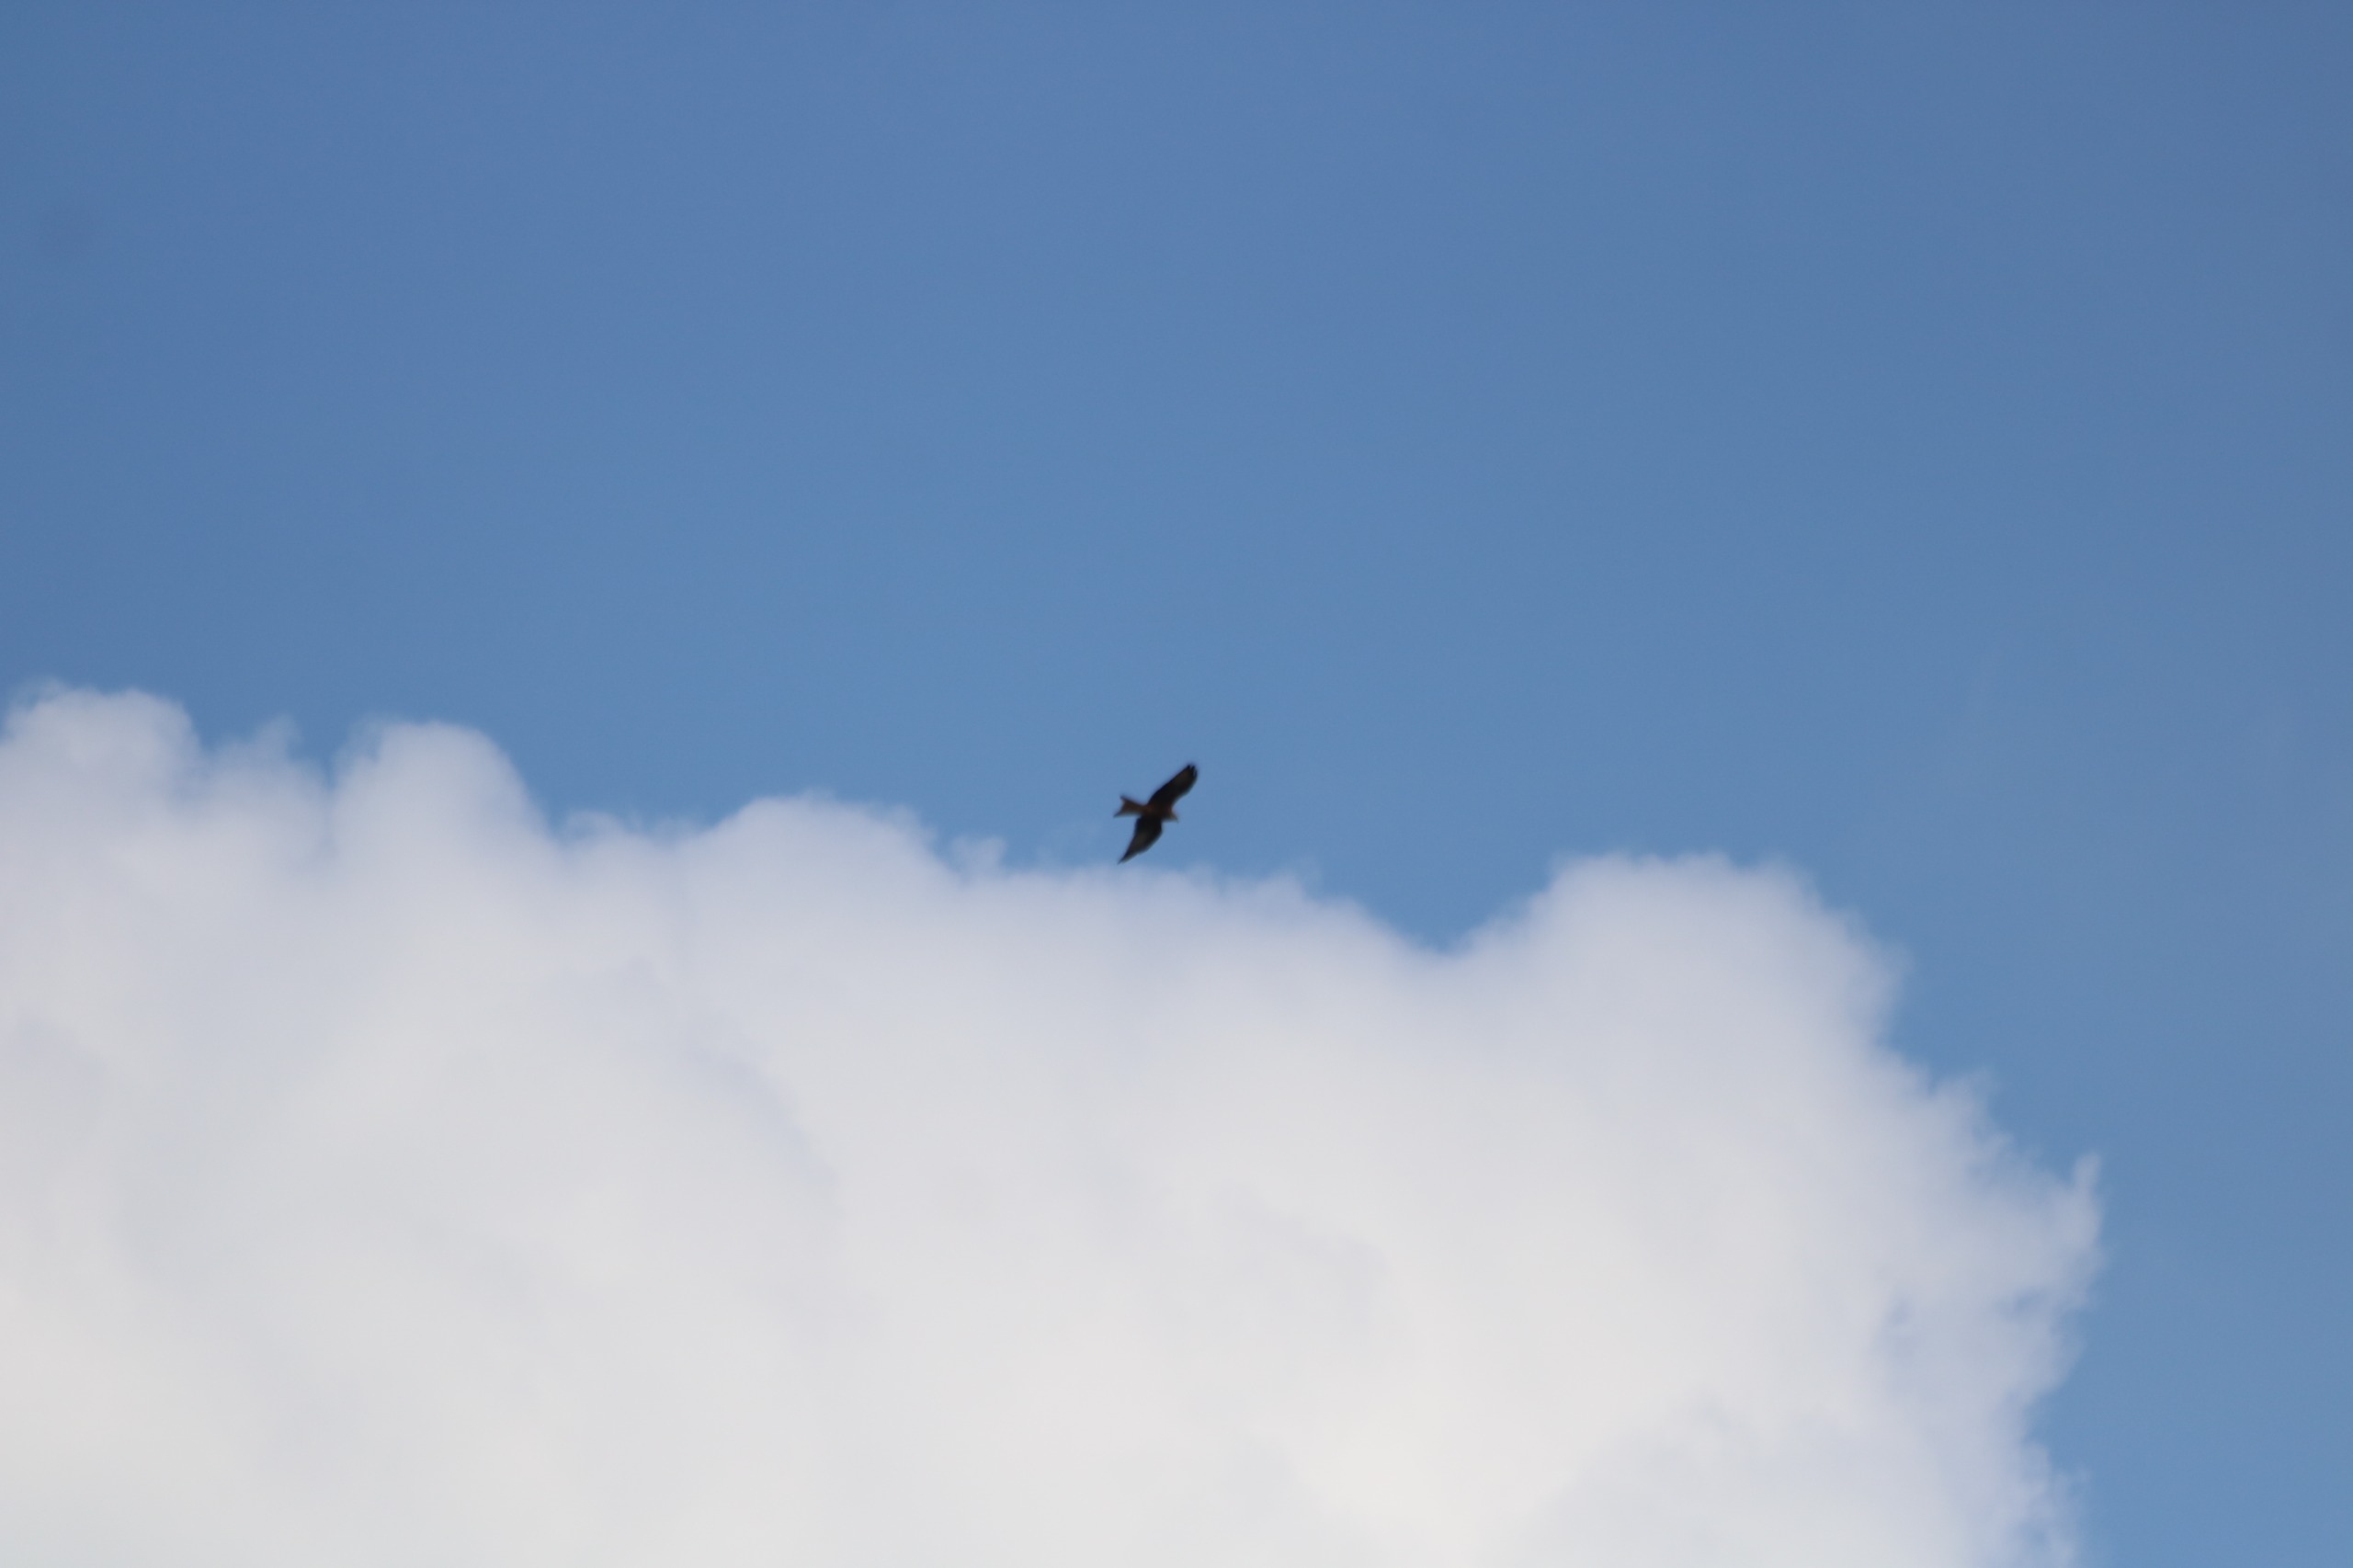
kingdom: Animalia
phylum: Chordata
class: Aves
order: Accipitriformes
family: Accipitridae
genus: Milvus
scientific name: Milvus milvus
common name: Rød glente
